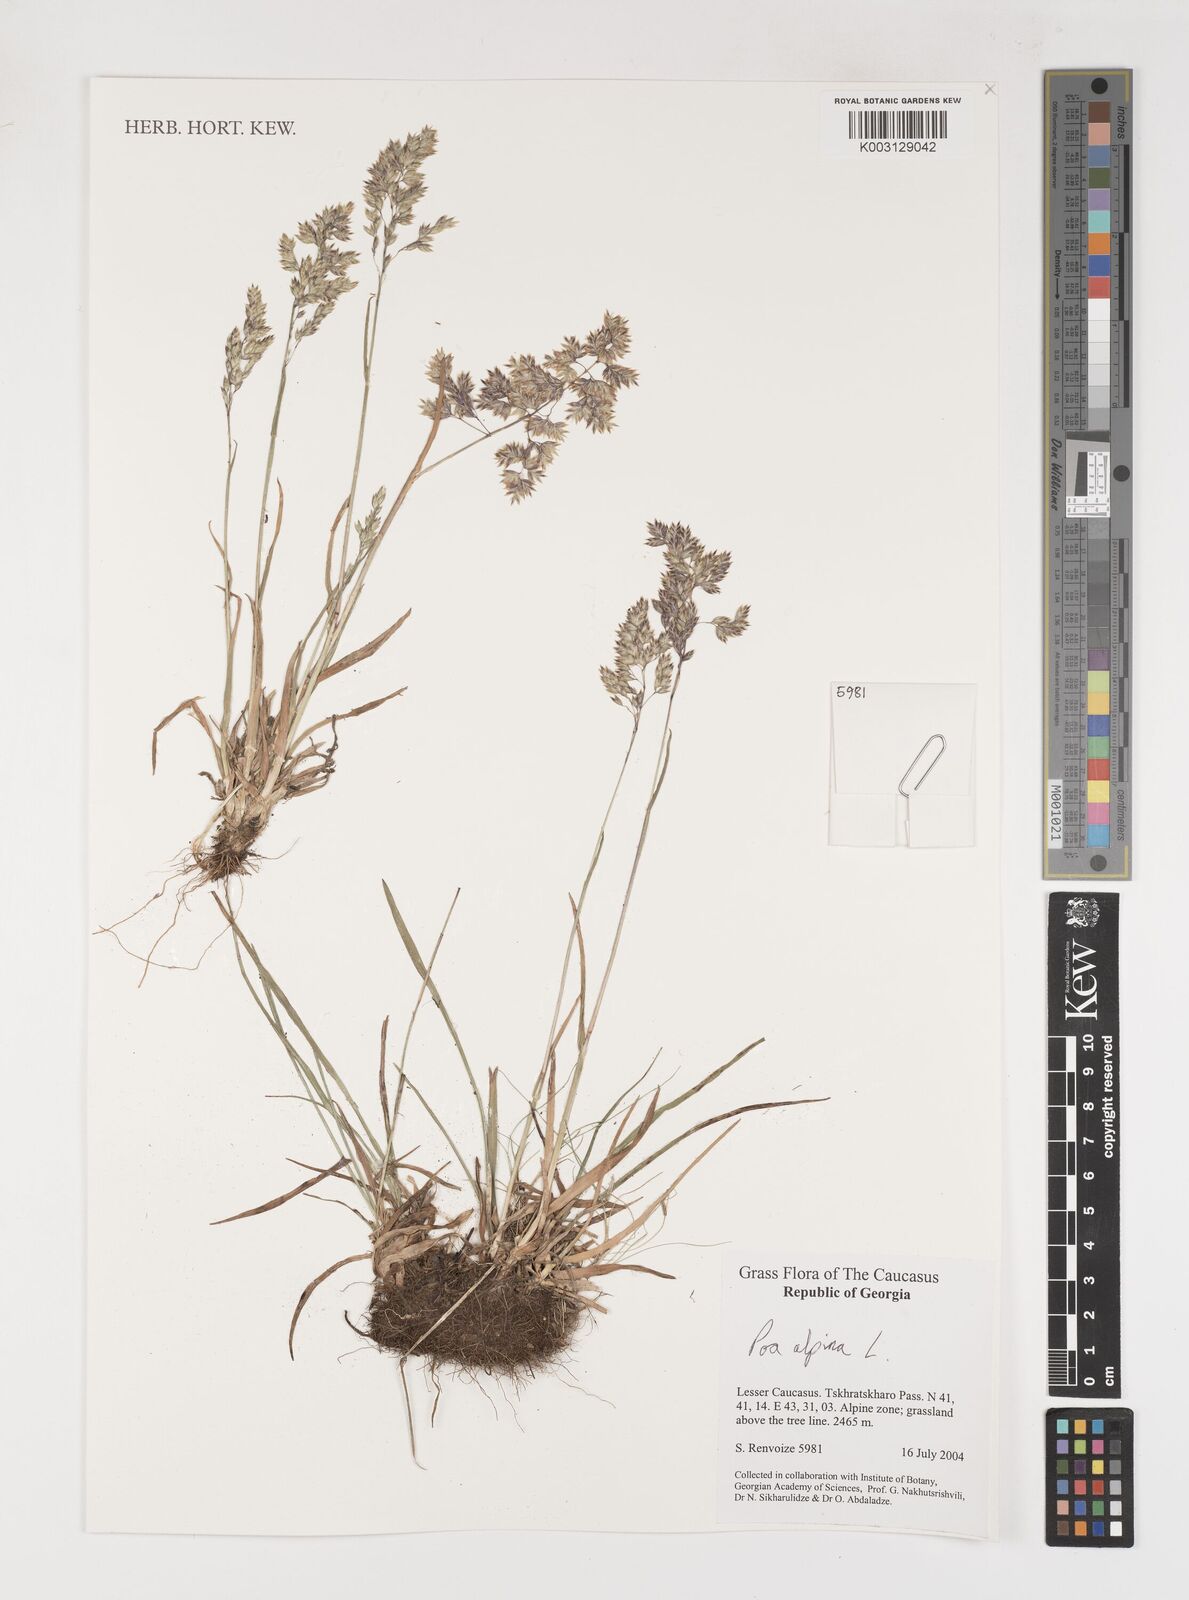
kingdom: Plantae
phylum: Tracheophyta
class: Liliopsida
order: Poales
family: Poaceae
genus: Poa
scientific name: Poa alpina
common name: Alpine bluegrass
